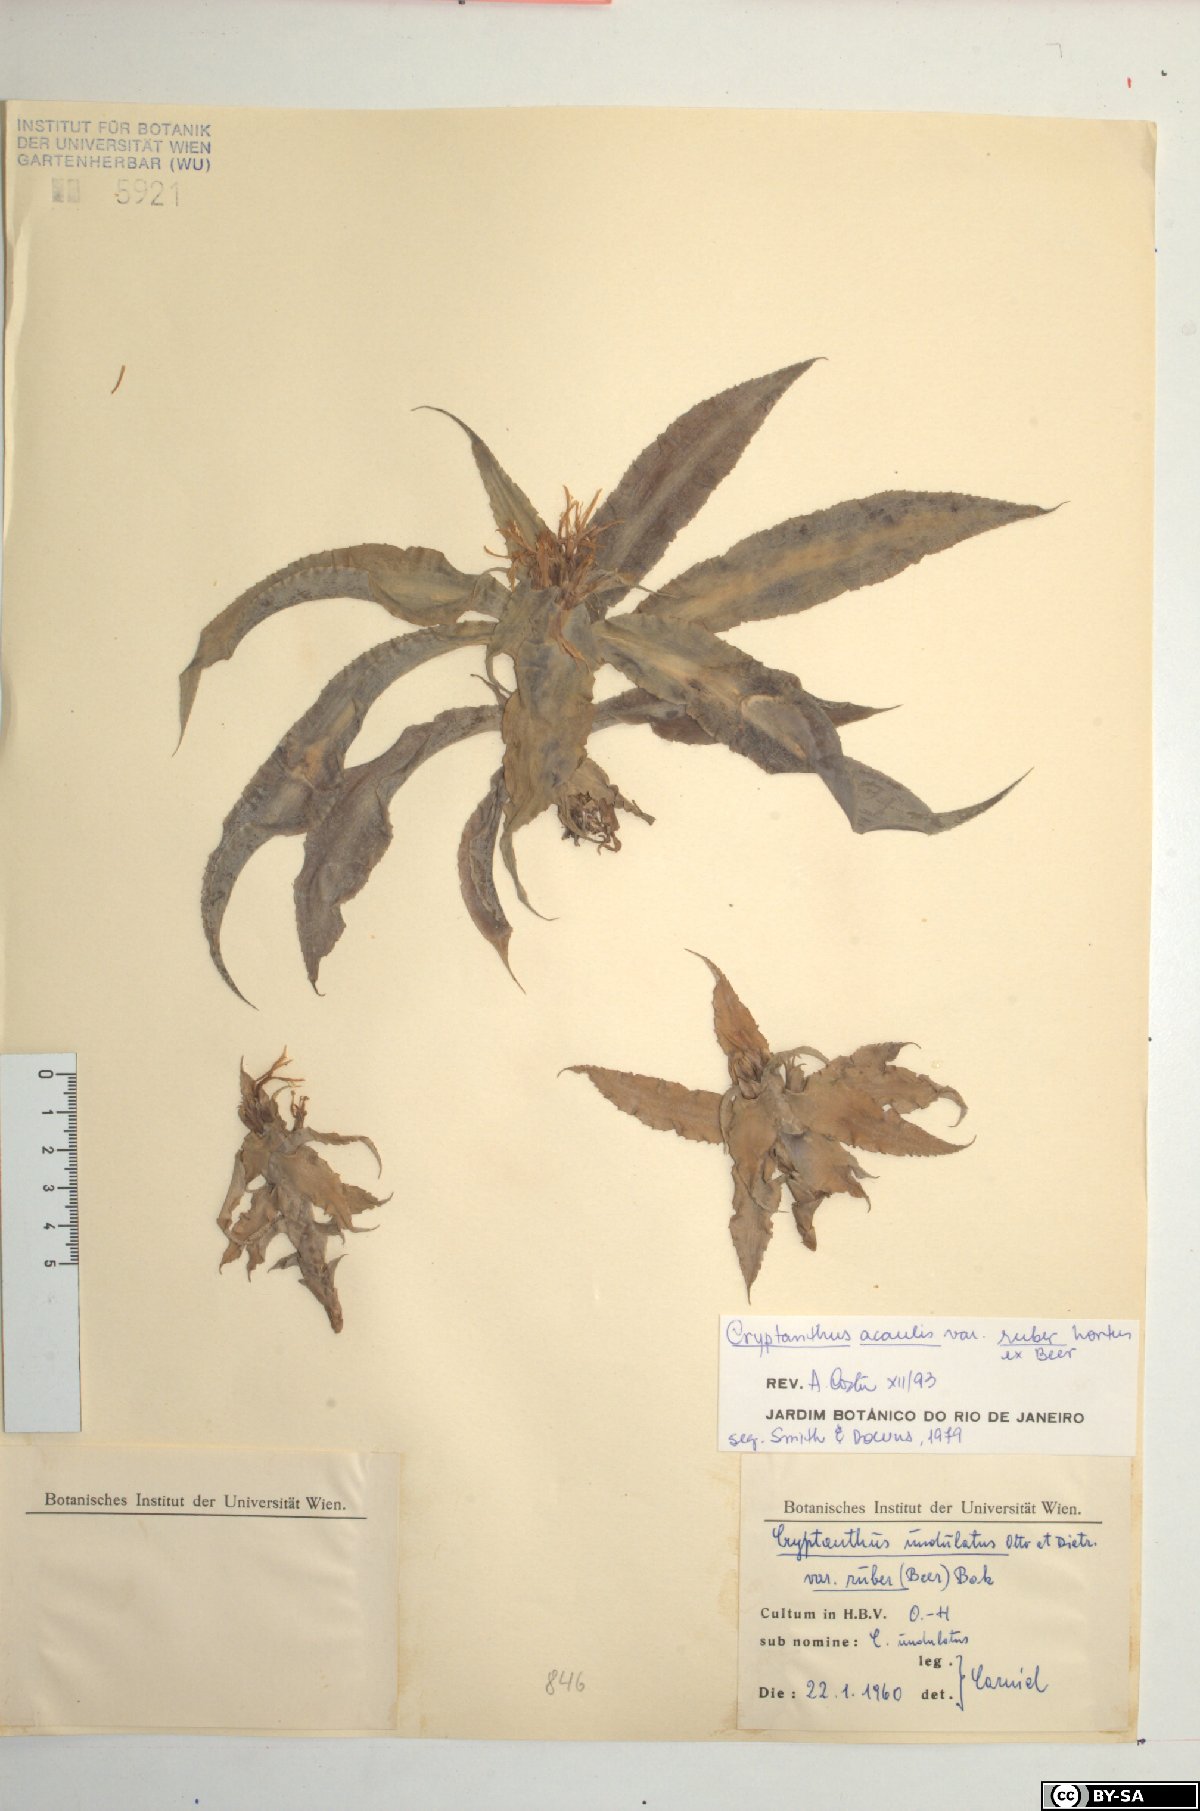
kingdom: Plantae
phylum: Tracheophyta
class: Liliopsida
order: Poales
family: Bromeliaceae
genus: Cryptanthus
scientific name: Cryptanthus acaulis
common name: Starfishplant
